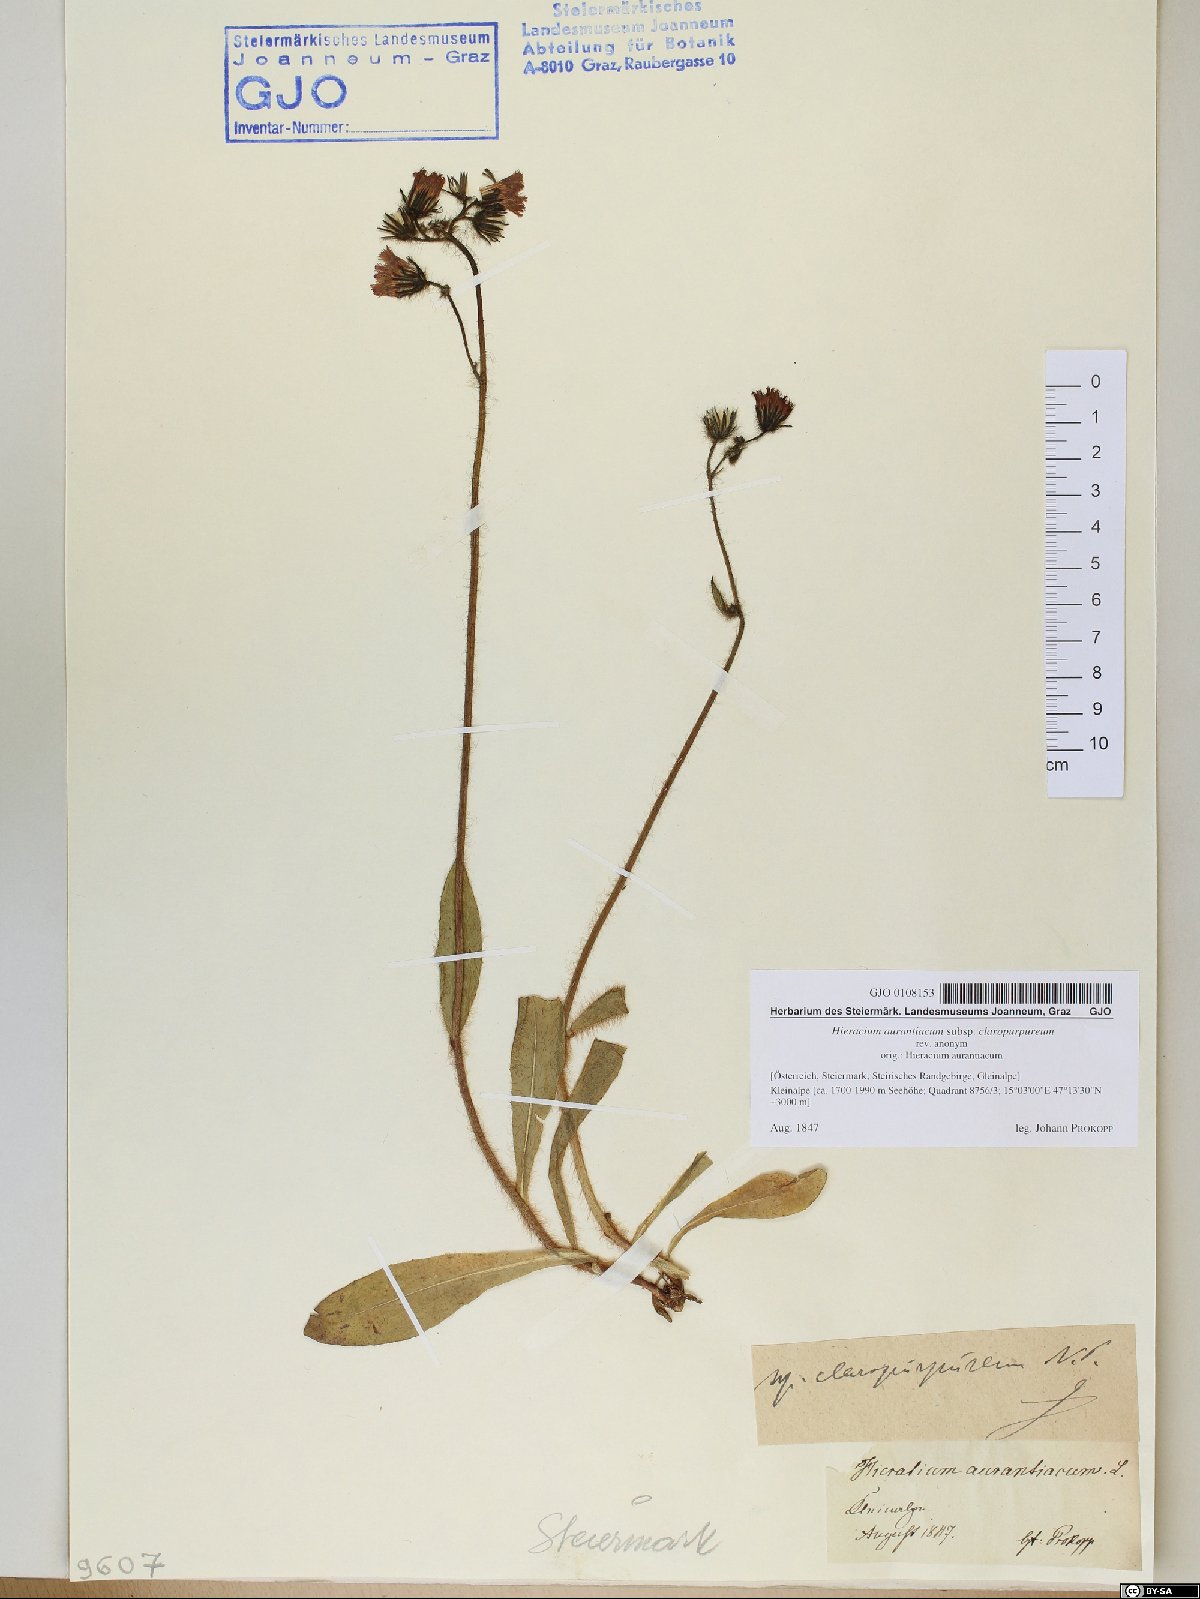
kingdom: Plantae
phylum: Tracheophyta
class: Magnoliopsida
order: Asterales
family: Asteraceae
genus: Pilosella
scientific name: Pilosella aurantiaca
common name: Fox-and-cubs
